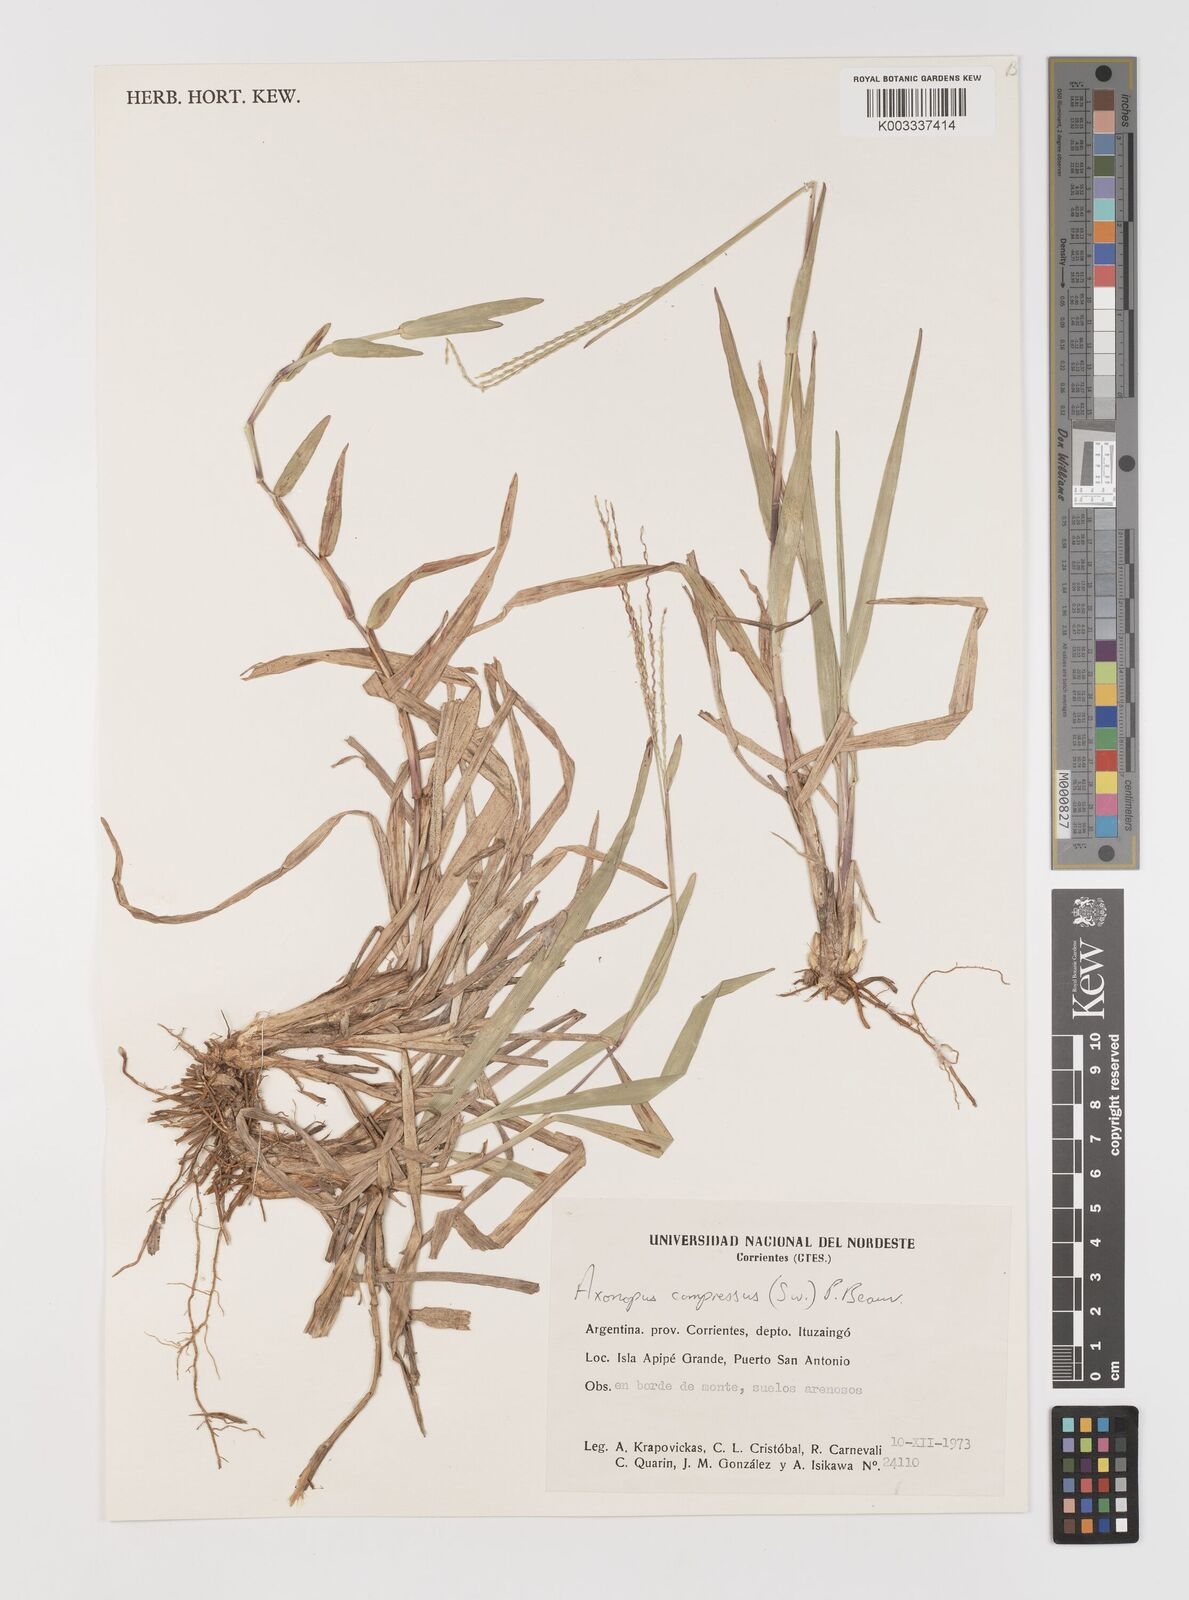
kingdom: Plantae
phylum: Tracheophyta
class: Liliopsida
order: Poales
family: Poaceae
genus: Axonopus
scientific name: Axonopus compressus
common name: American carpet grass
